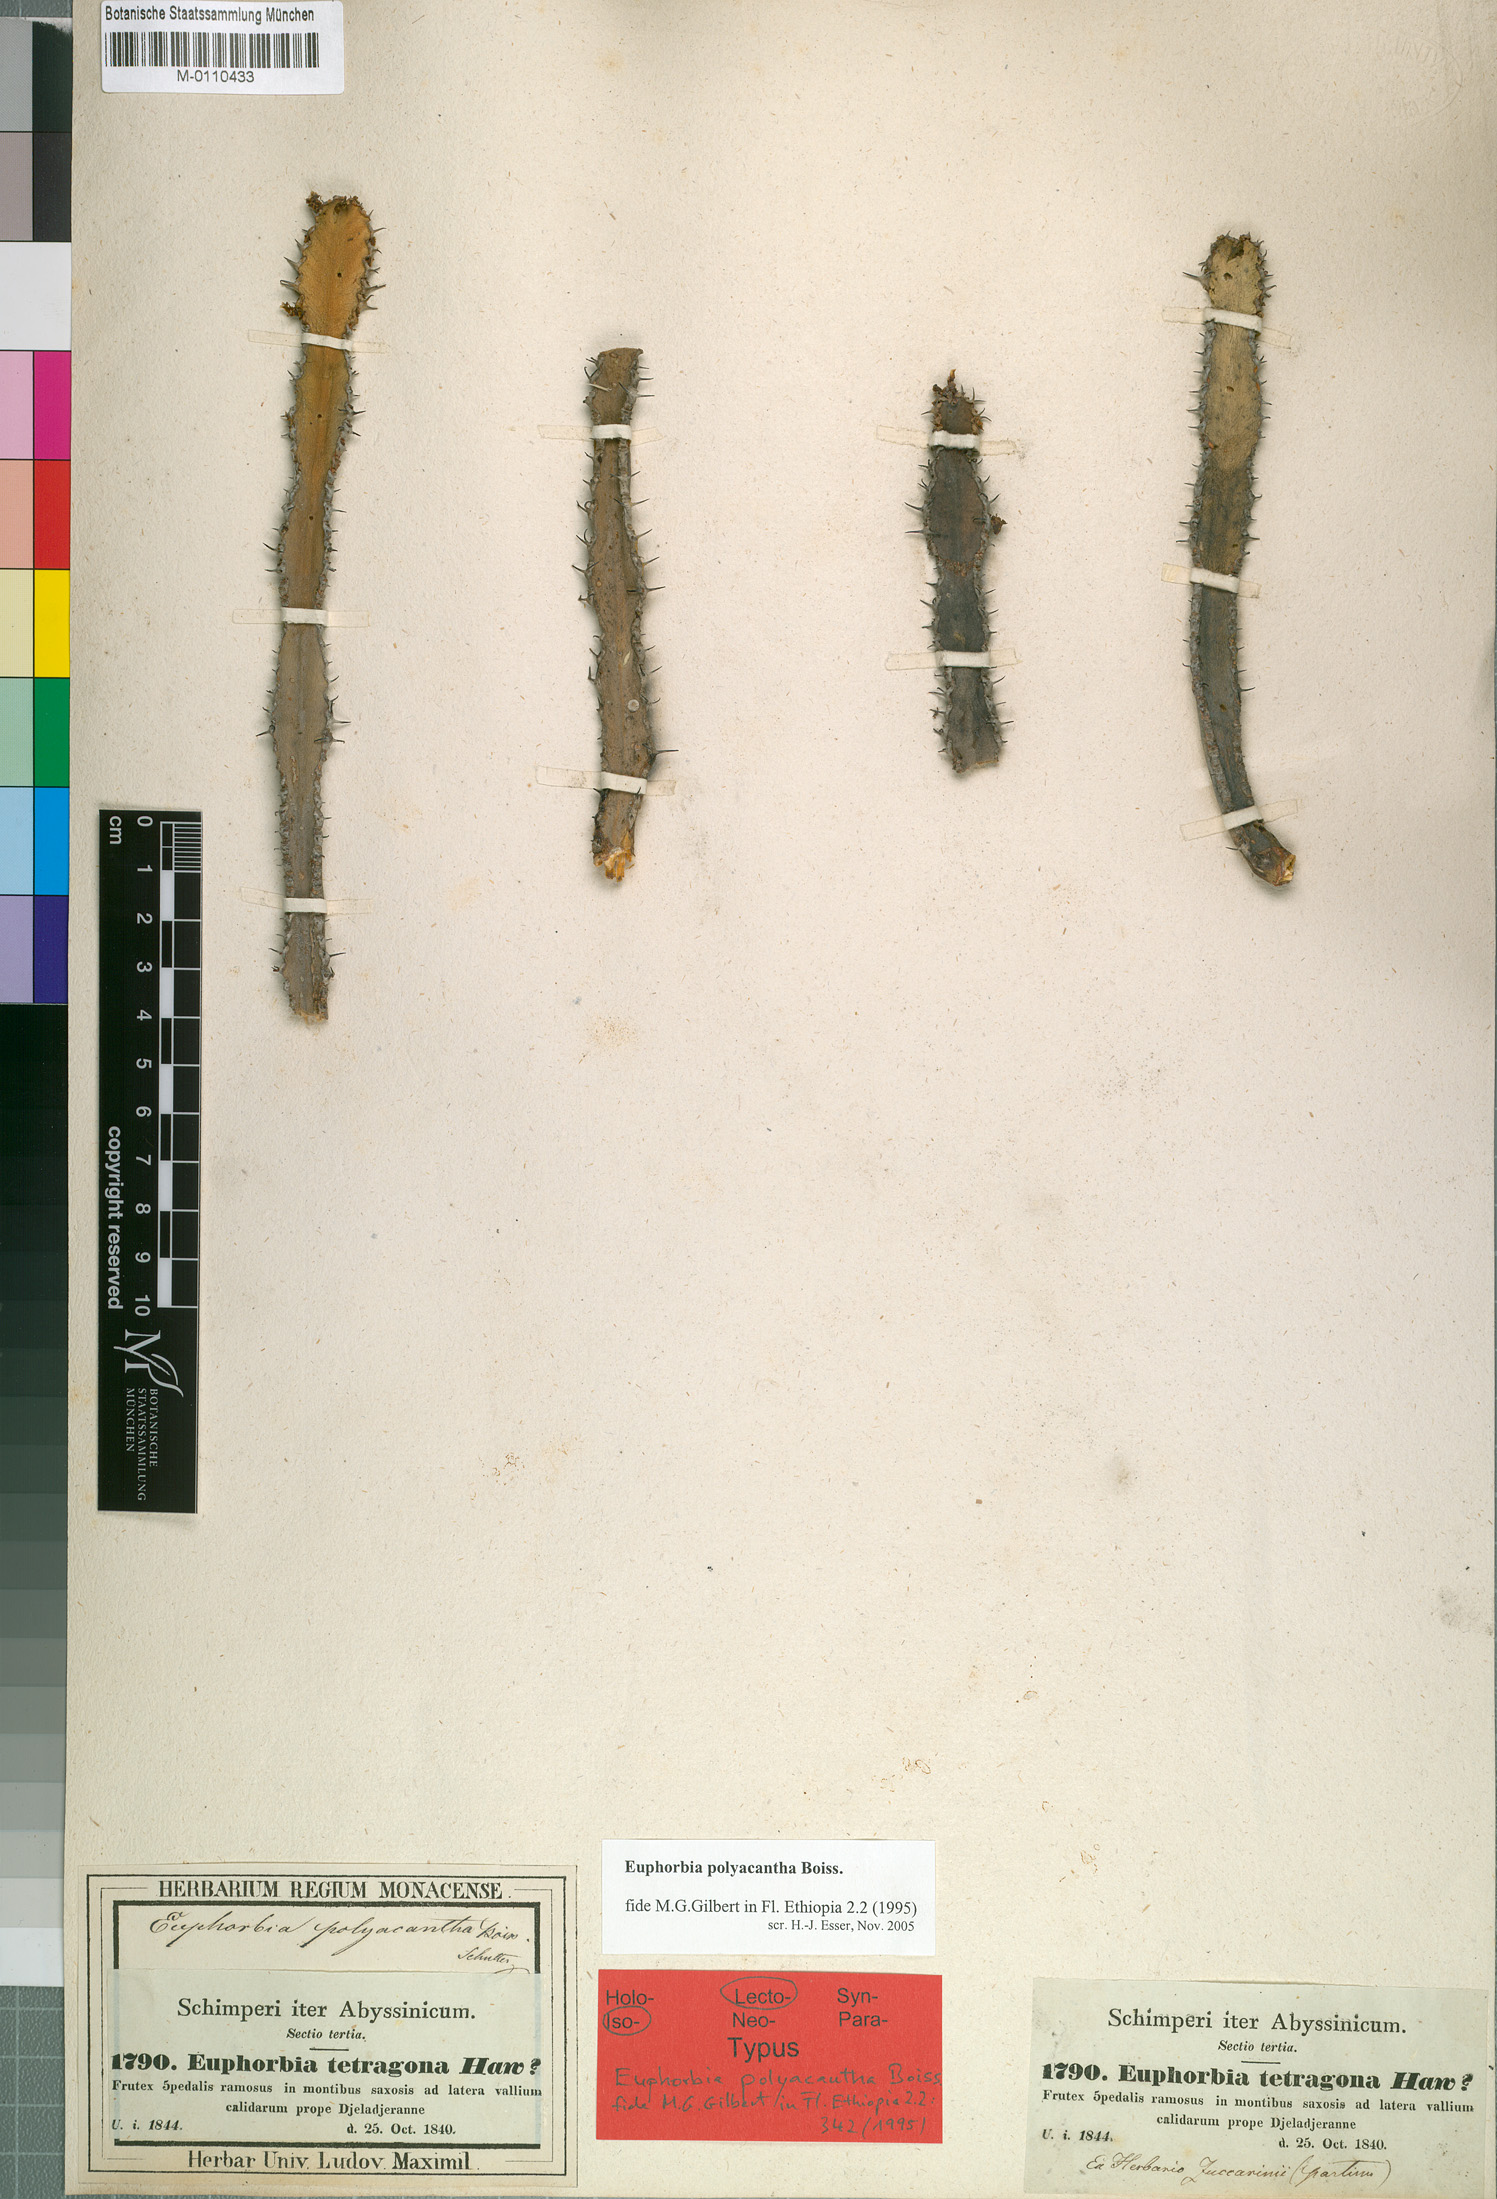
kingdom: Plantae
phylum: Tracheophyta
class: Magnoliopsida
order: Malpighiales
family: Euphorbiaceae
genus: Euphorbia
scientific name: Euphorbia polyacantha
